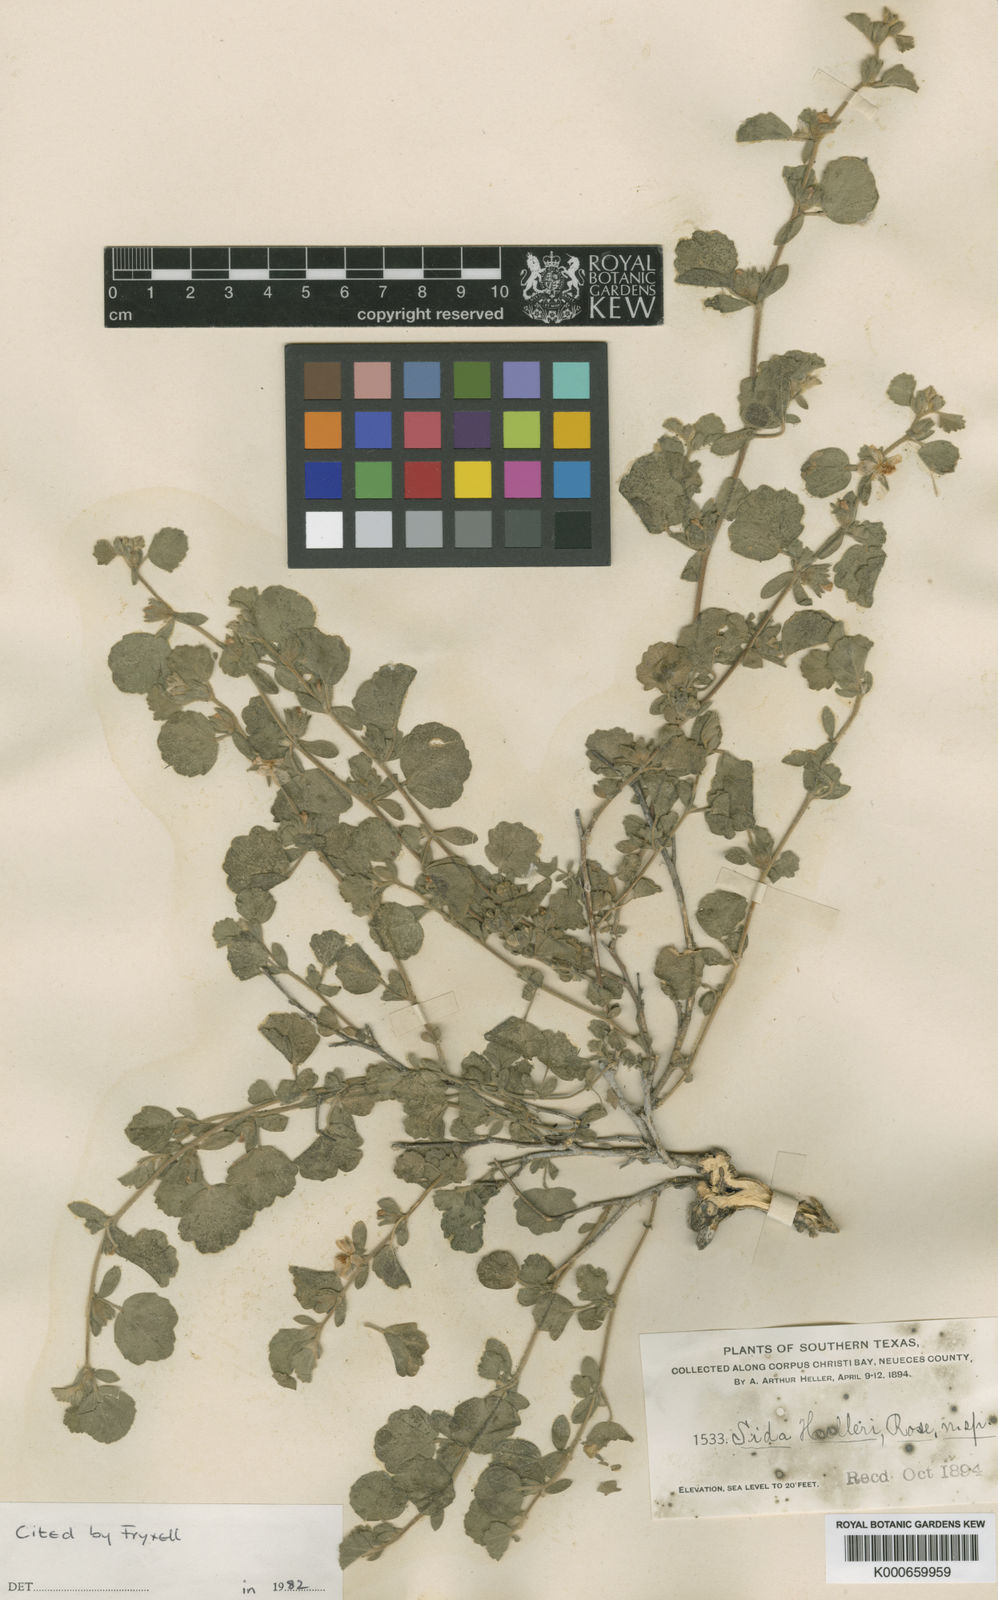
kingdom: Plantae
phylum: Tracheophyta
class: Magnoliopsida
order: Malvales
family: Malvaceae
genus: Billieturnera
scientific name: Billieturnera helleri
